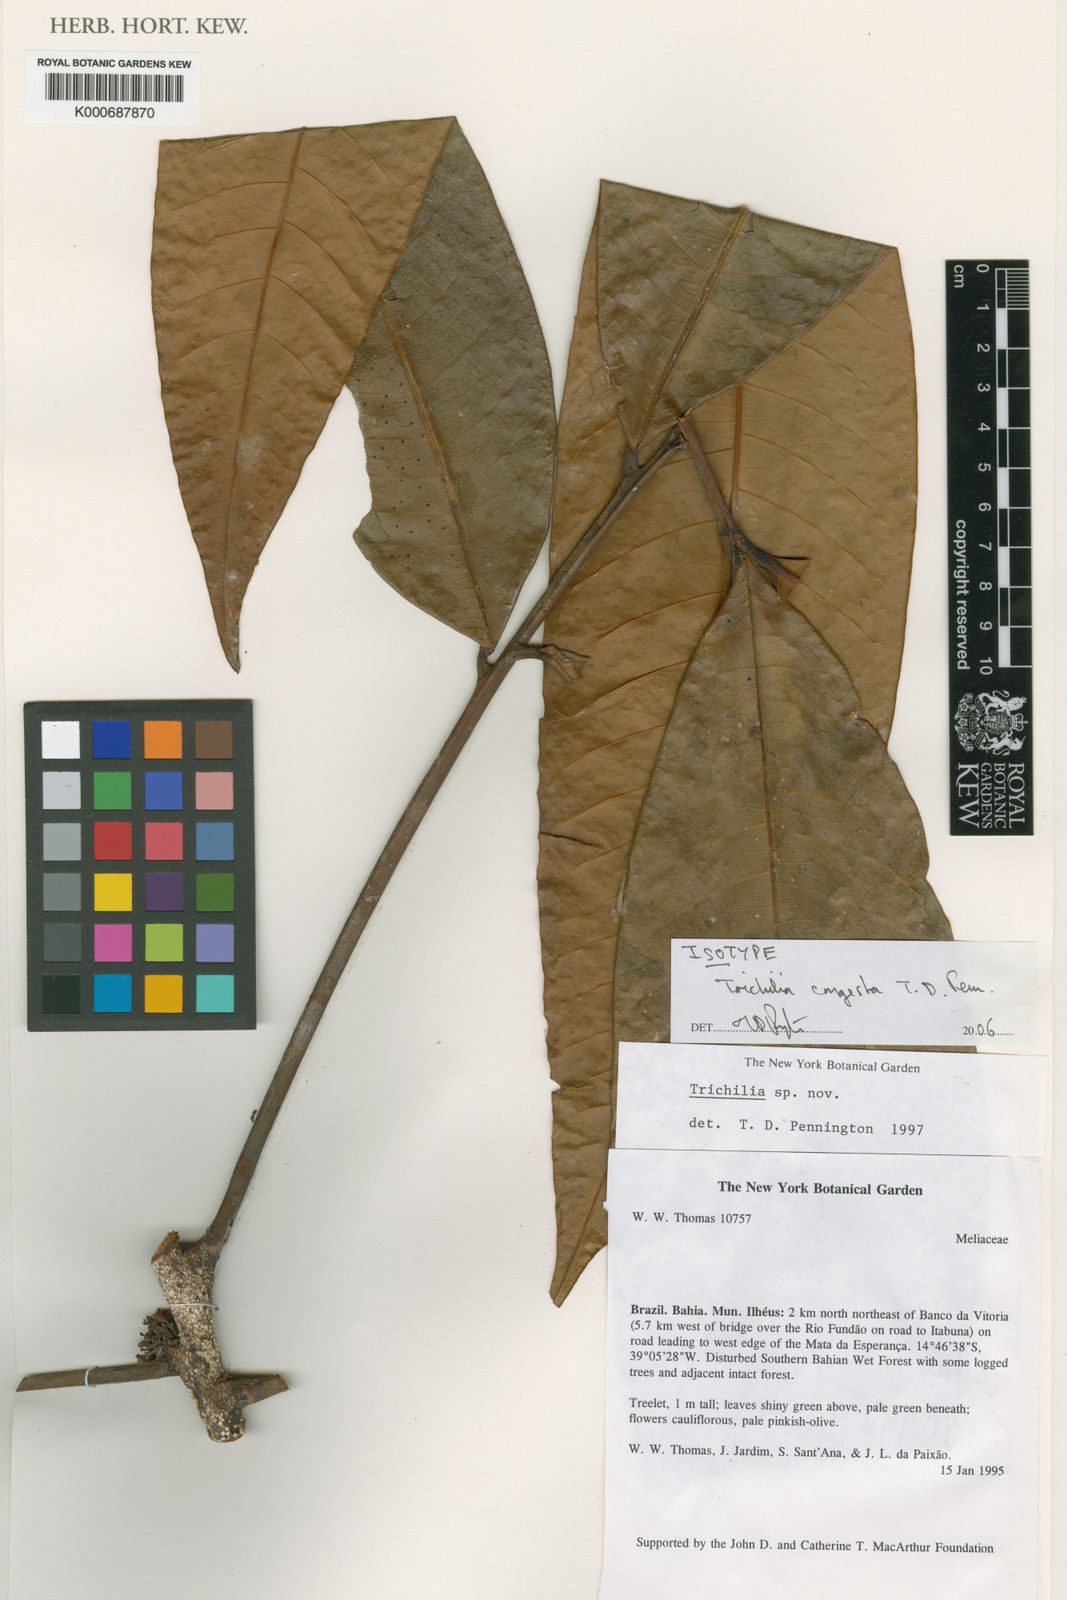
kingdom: Plantae
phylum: Tracheophyta
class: Magnoliopsida
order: Sapindales
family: Meliaceae
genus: Trichilia
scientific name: Trichilia
